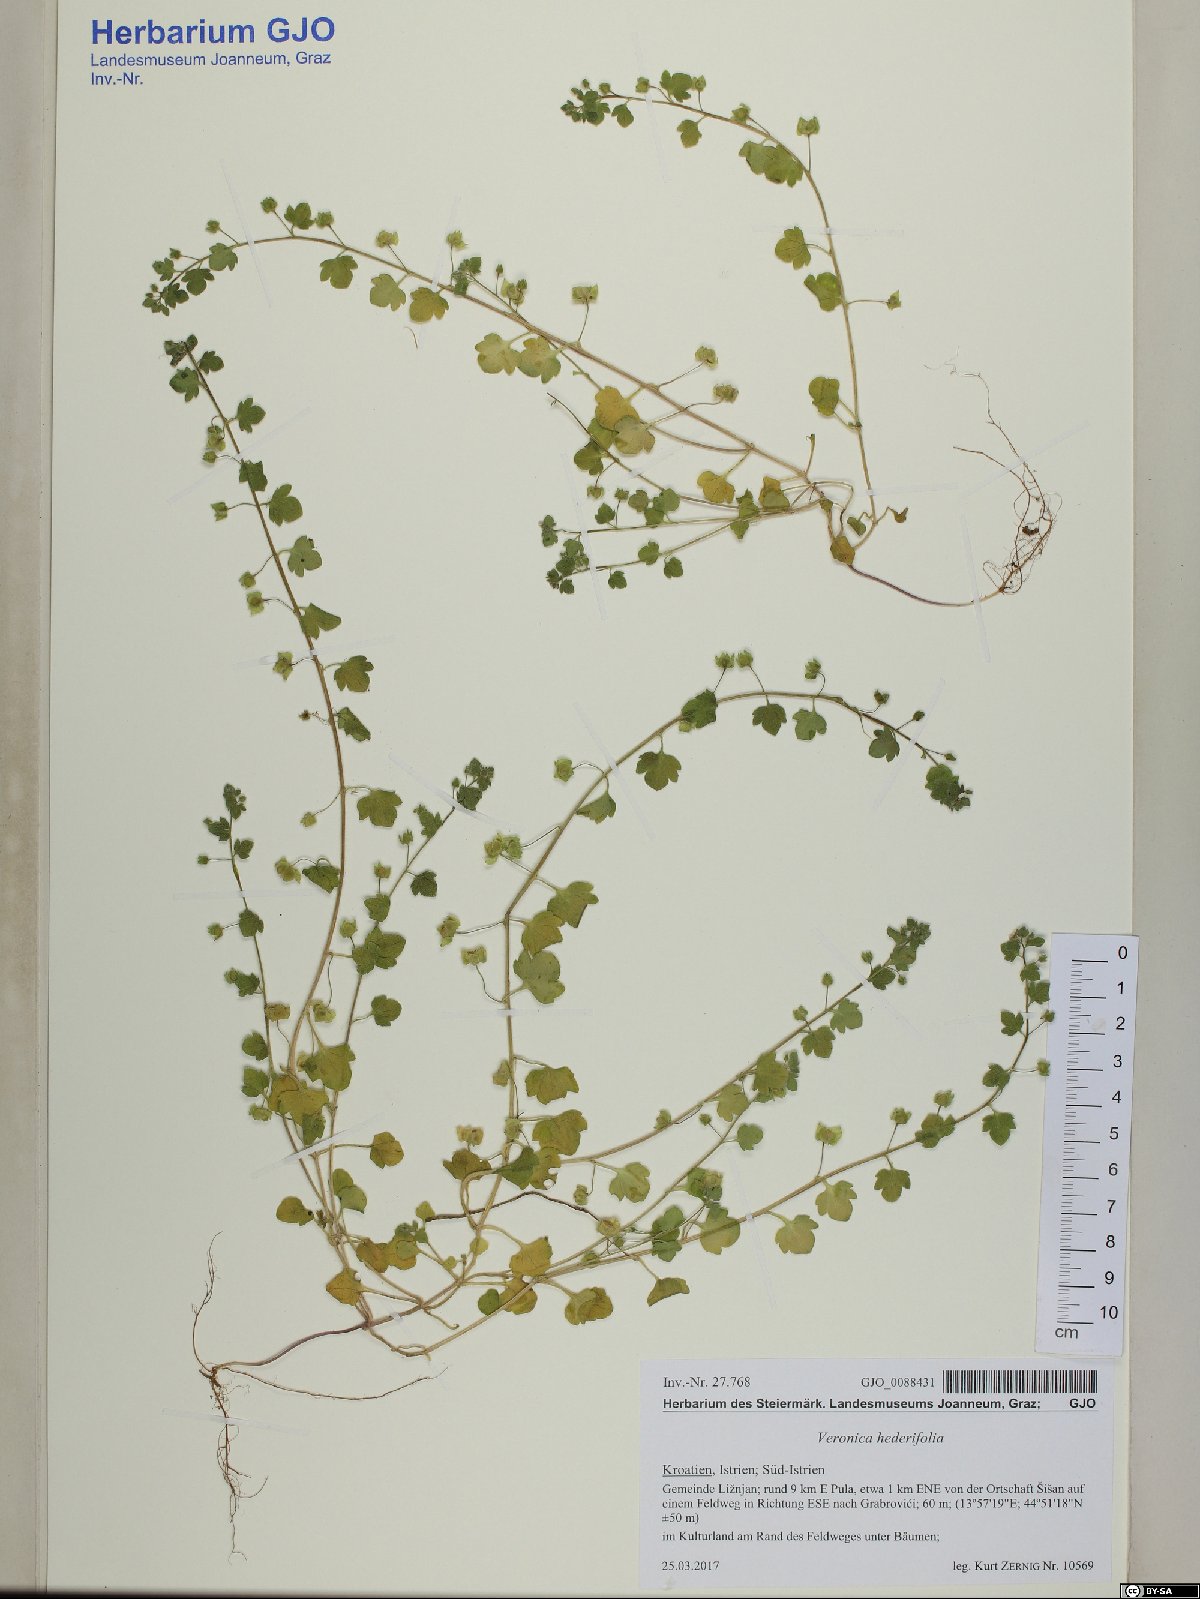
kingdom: Plantae
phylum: Tracheophyta
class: Magnoliopsida
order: Lamiales
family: Plantaginaceae
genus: Veronica
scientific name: Veronica hederifolia
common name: Ivy-leaved speedwell
